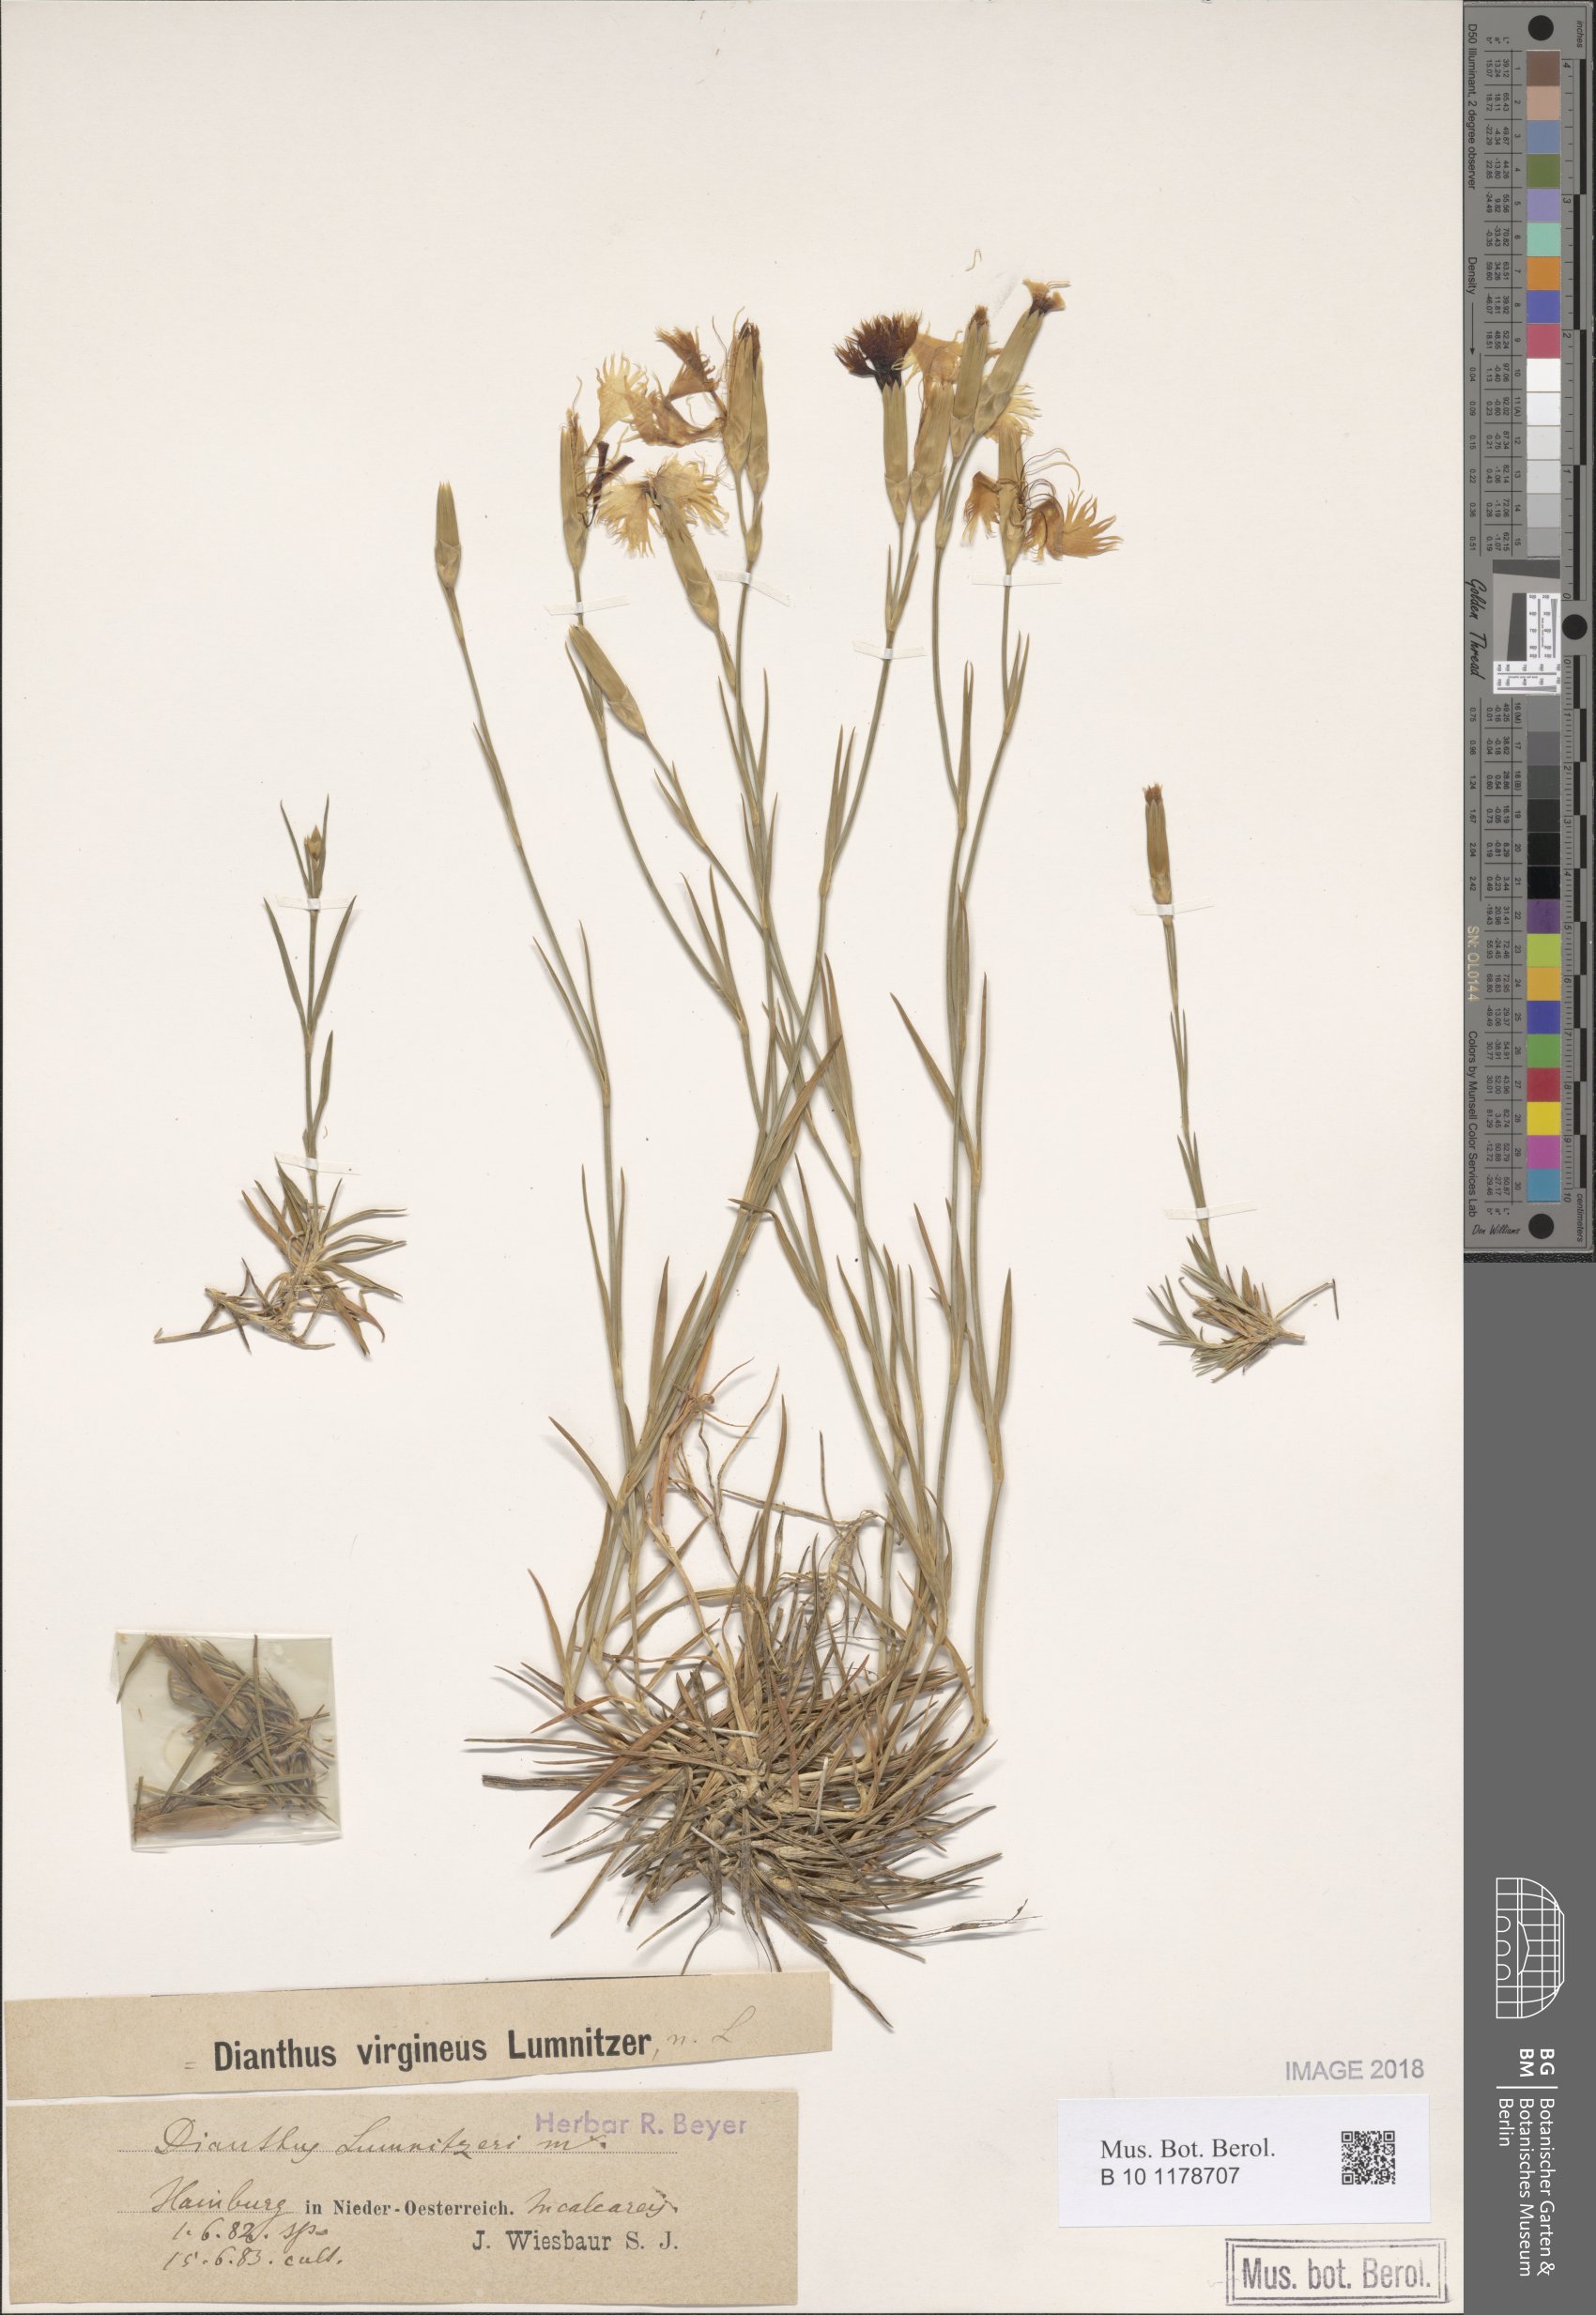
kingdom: Plantae
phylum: Tracheophyta
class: Magnoliopsida
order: Caryophyllales
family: Caryophyllaceae
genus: Dianthus
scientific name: Dianthus praecox
